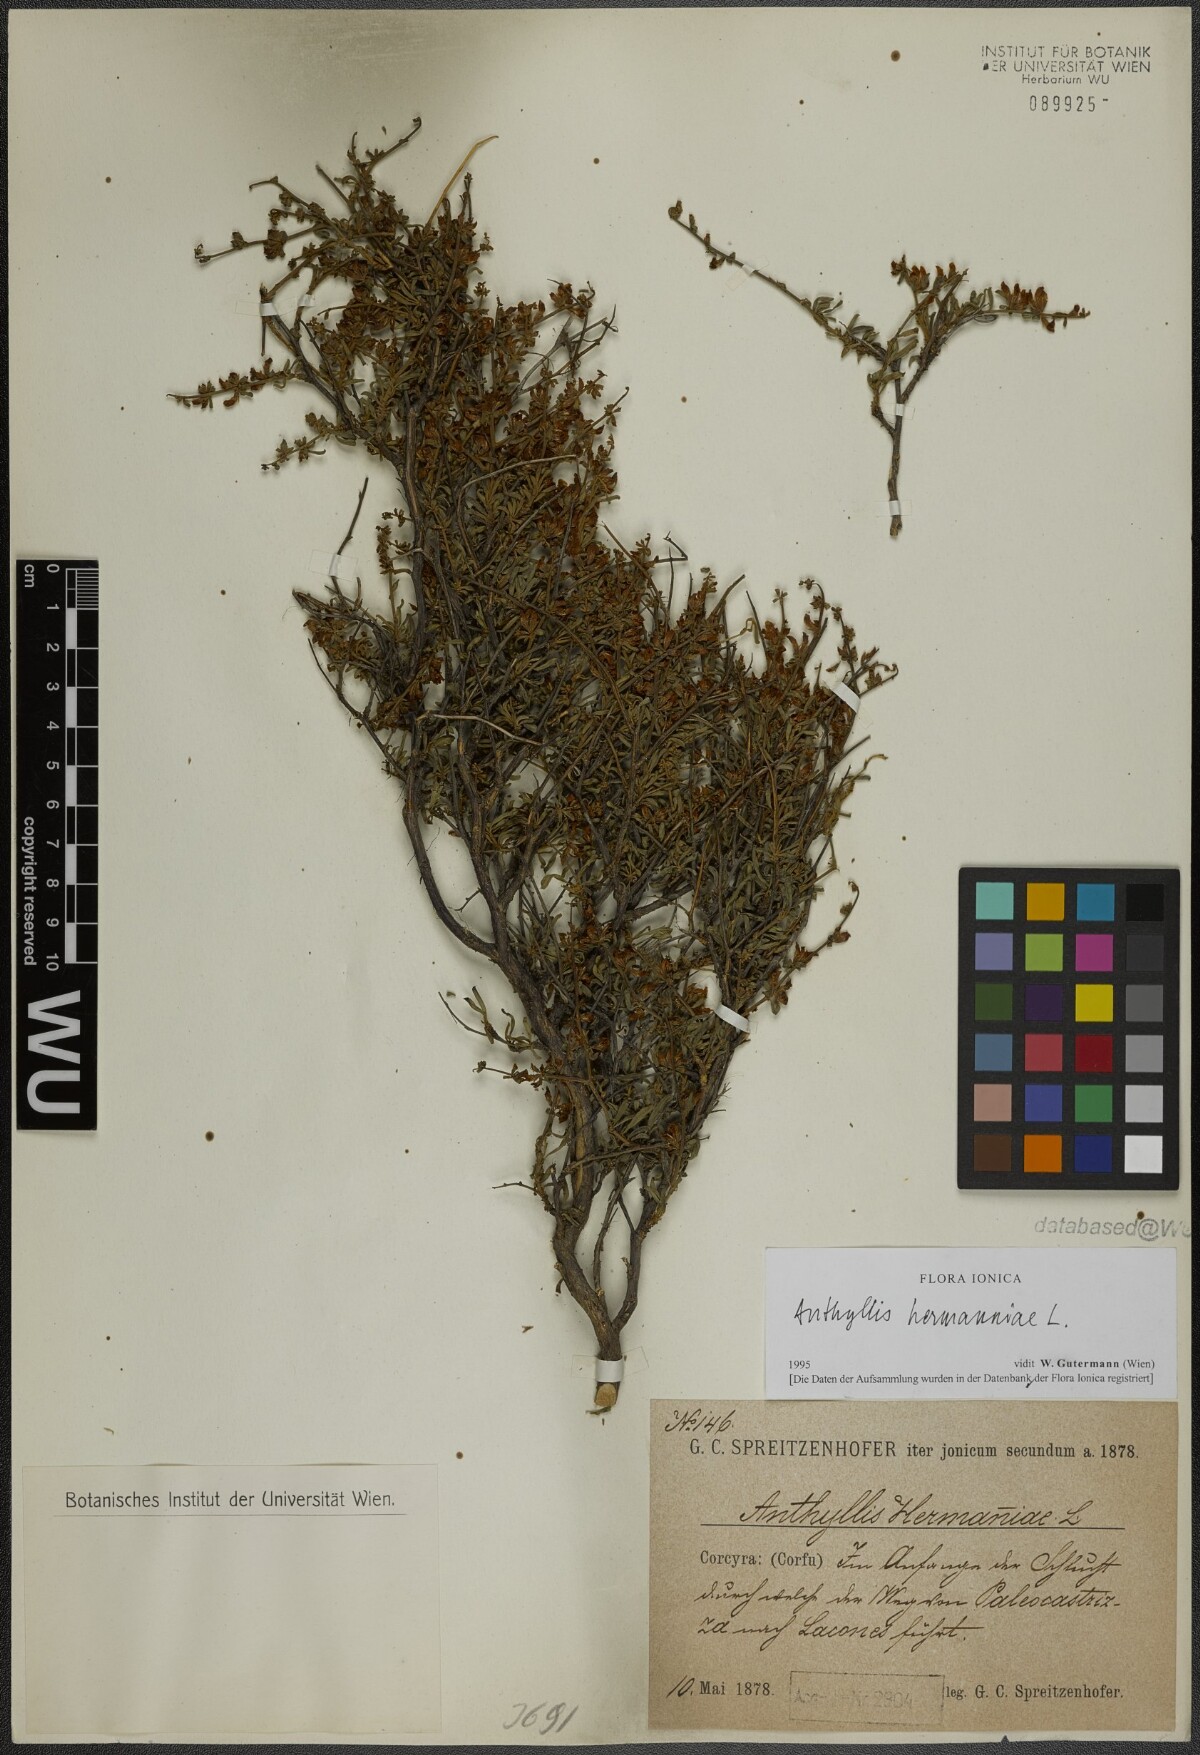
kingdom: Plantae
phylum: Tracheophyta
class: Magnoliopsida
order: Fabales
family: Fabaceae
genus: Anthyllis
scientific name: Anthyllis hermanniae
